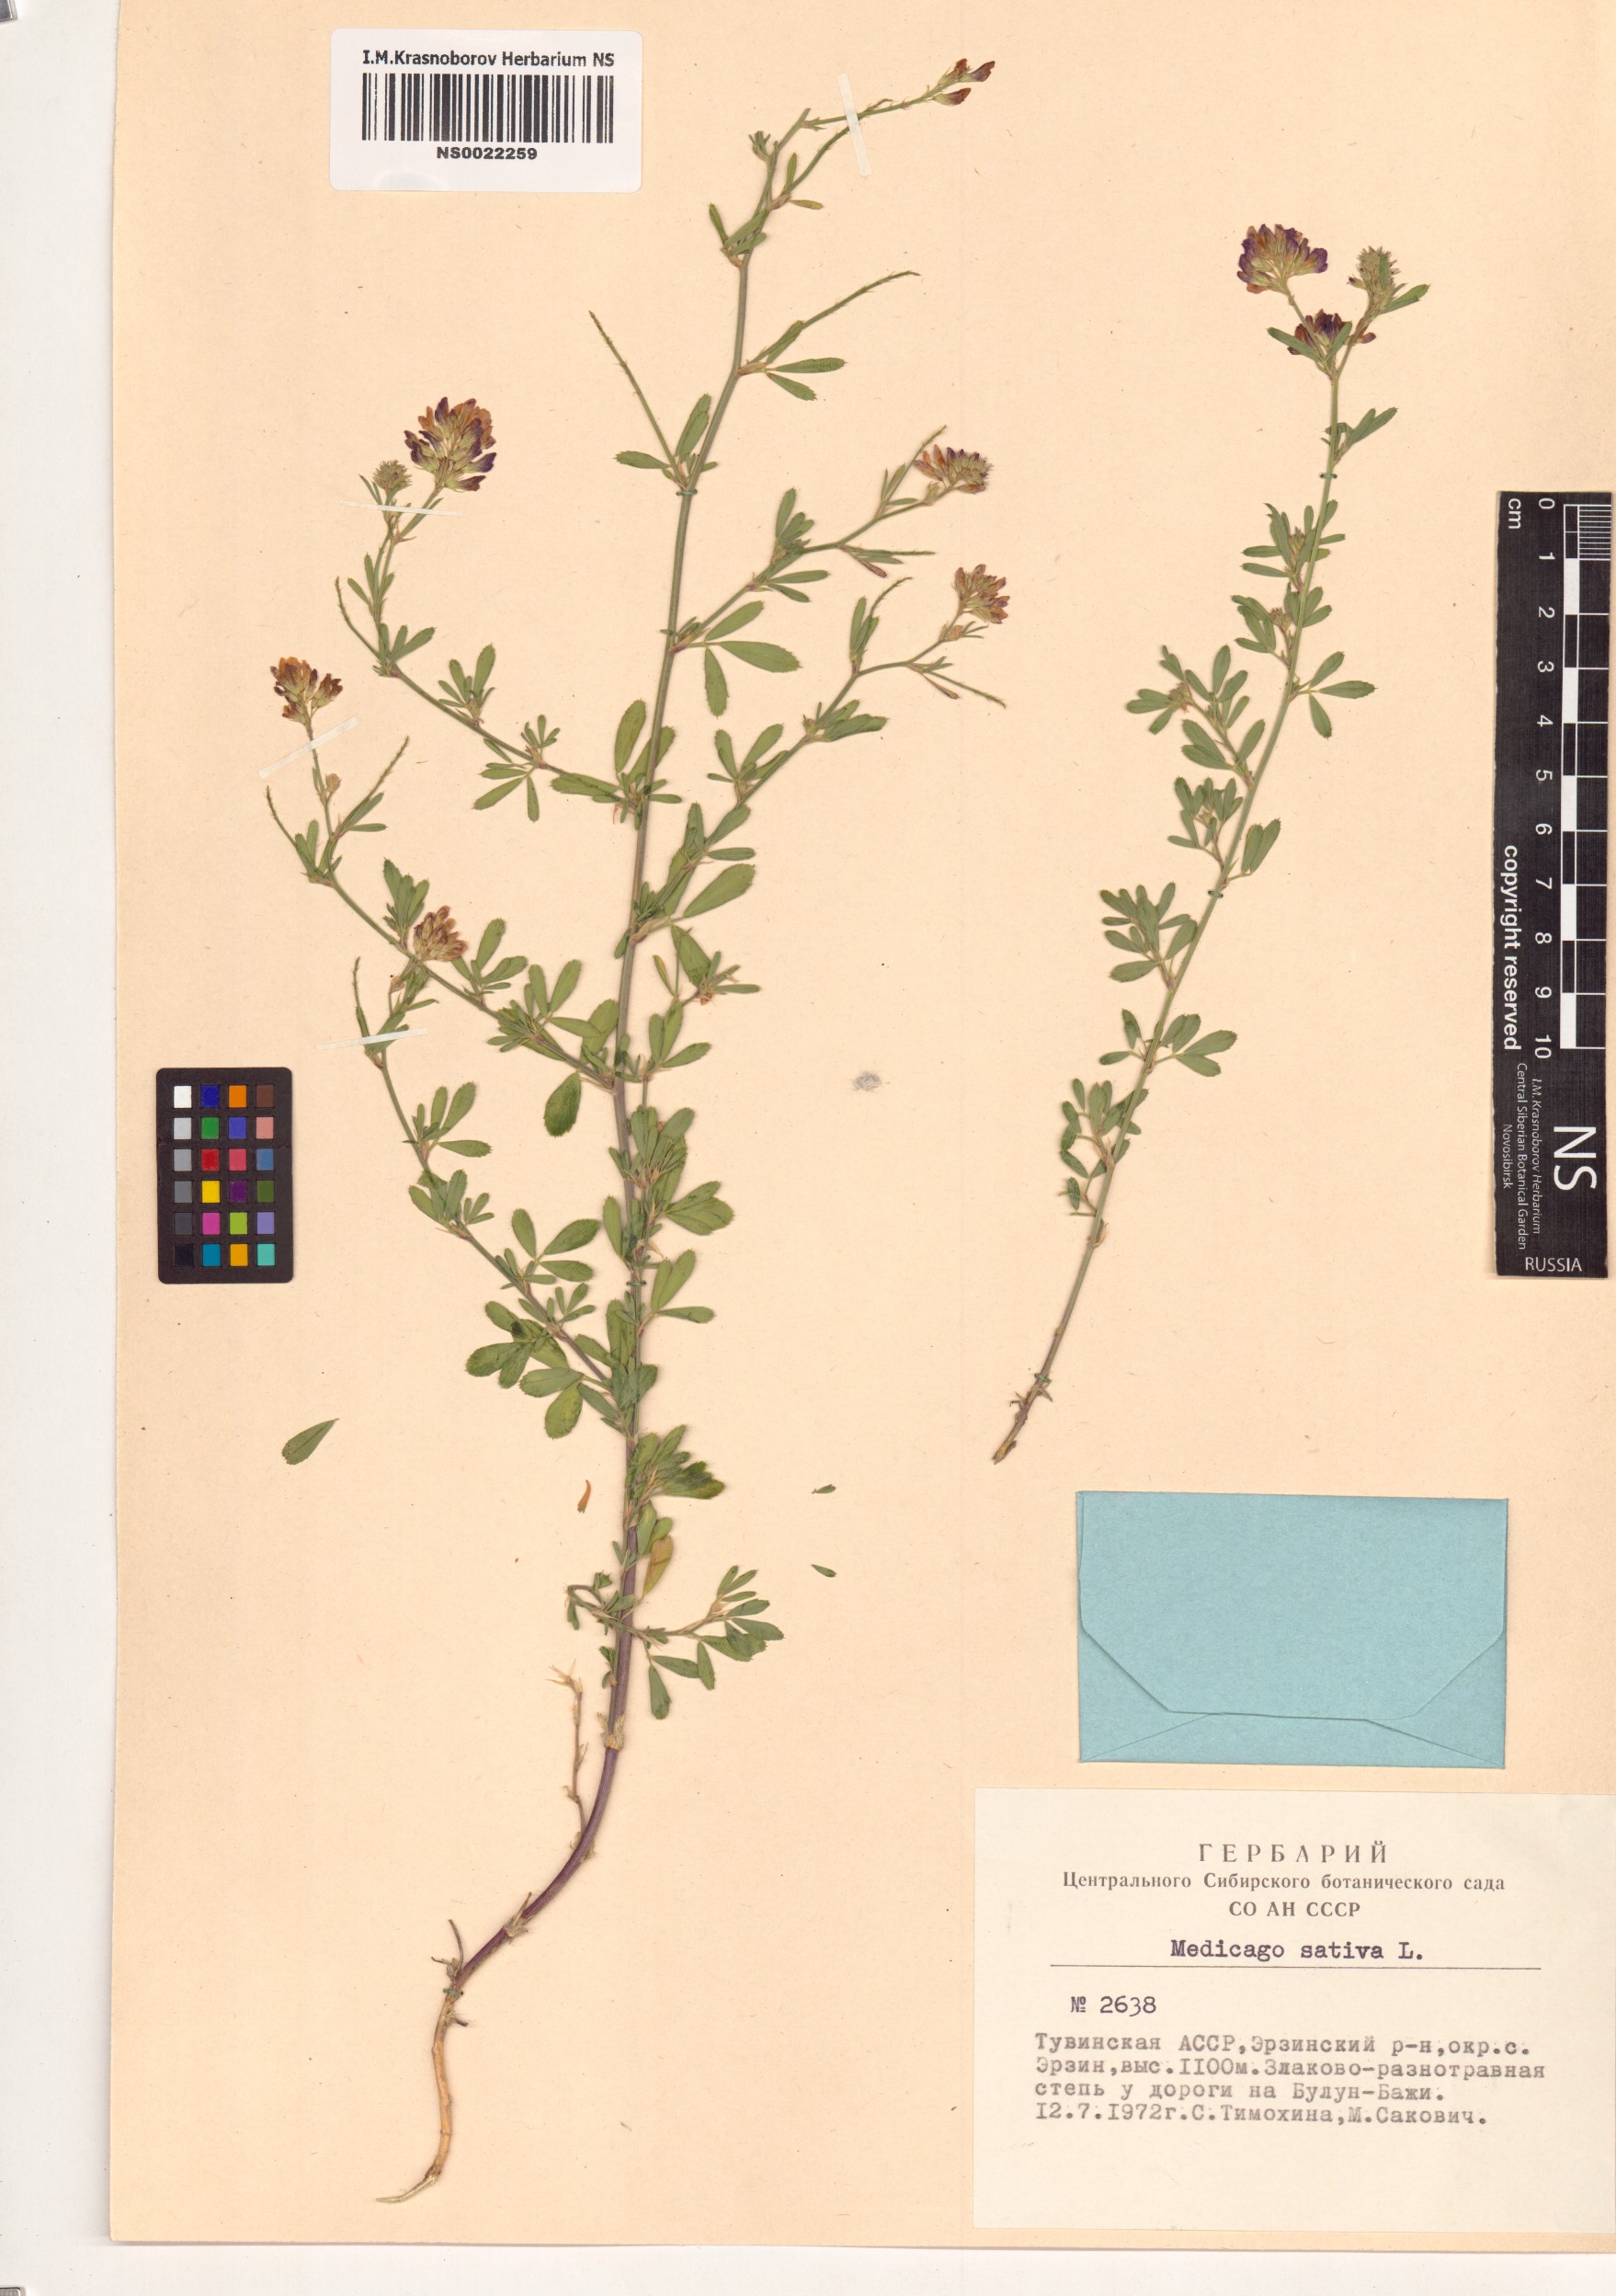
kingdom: Plantae
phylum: Tracheophyta
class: Magnoliopsida
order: Fabales
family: Fabaceae
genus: Medicago
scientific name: Medicago sativa
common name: Alfalfa
